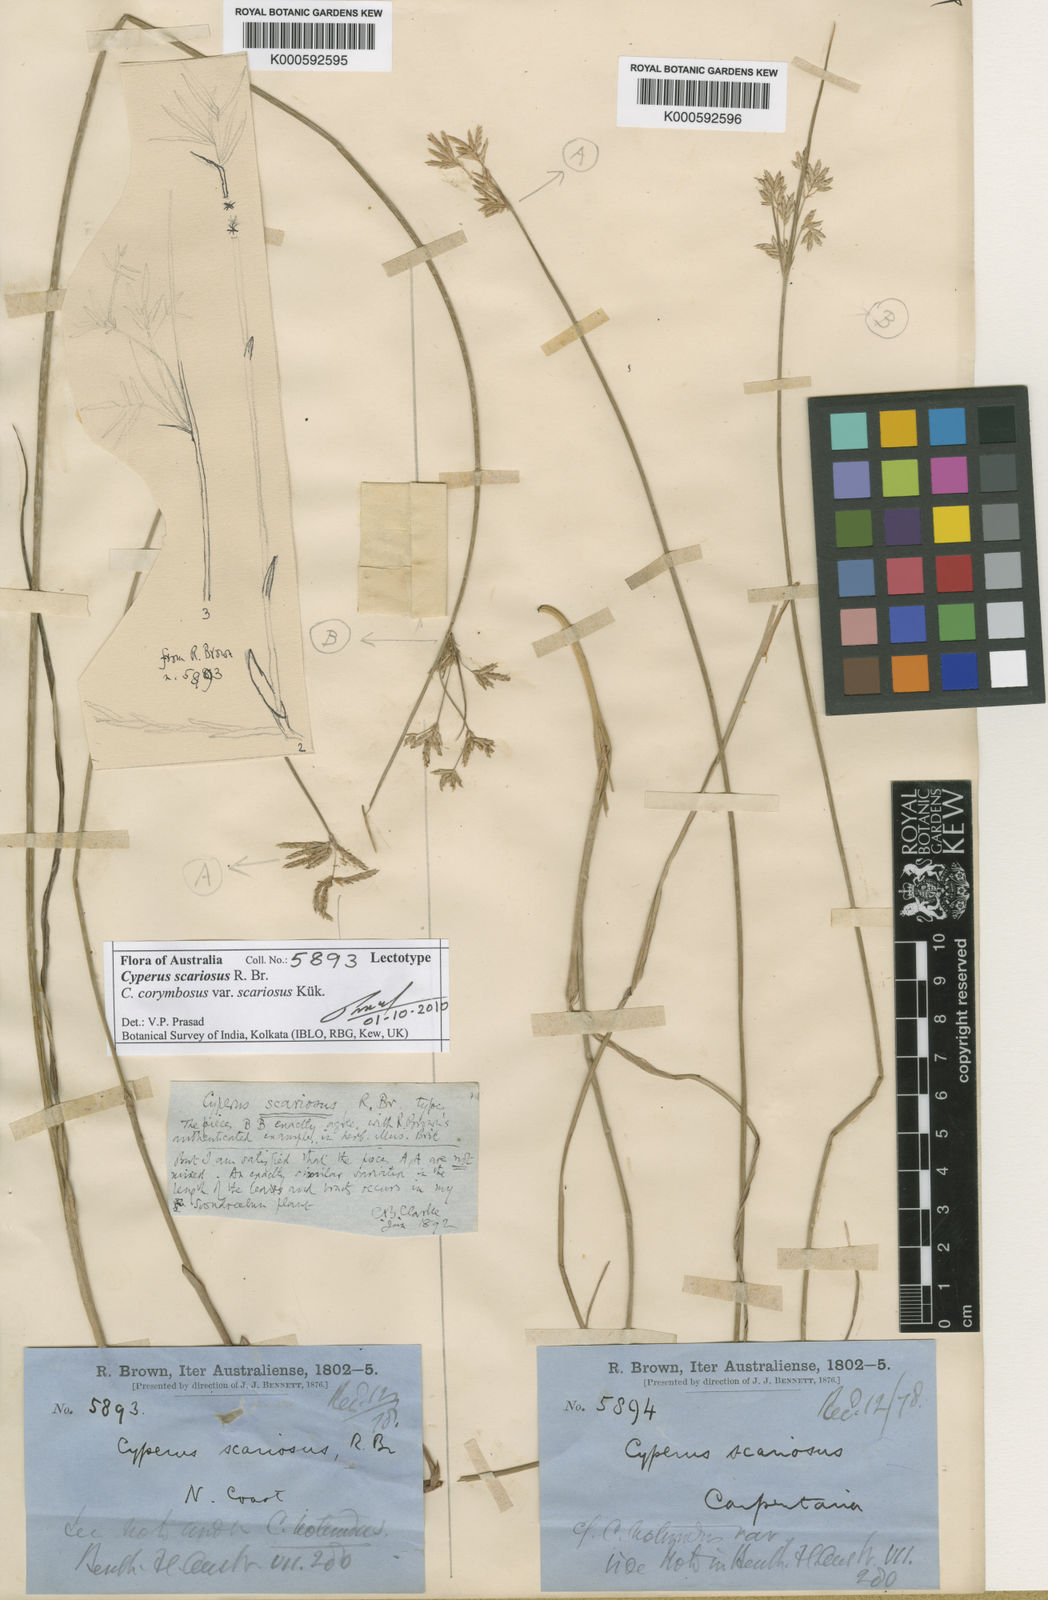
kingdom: Plantae
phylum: Tracheophyta
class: Liliopsida
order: Poales
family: Cyperaceae
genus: Cyperus
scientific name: Cyperus corymbosus
